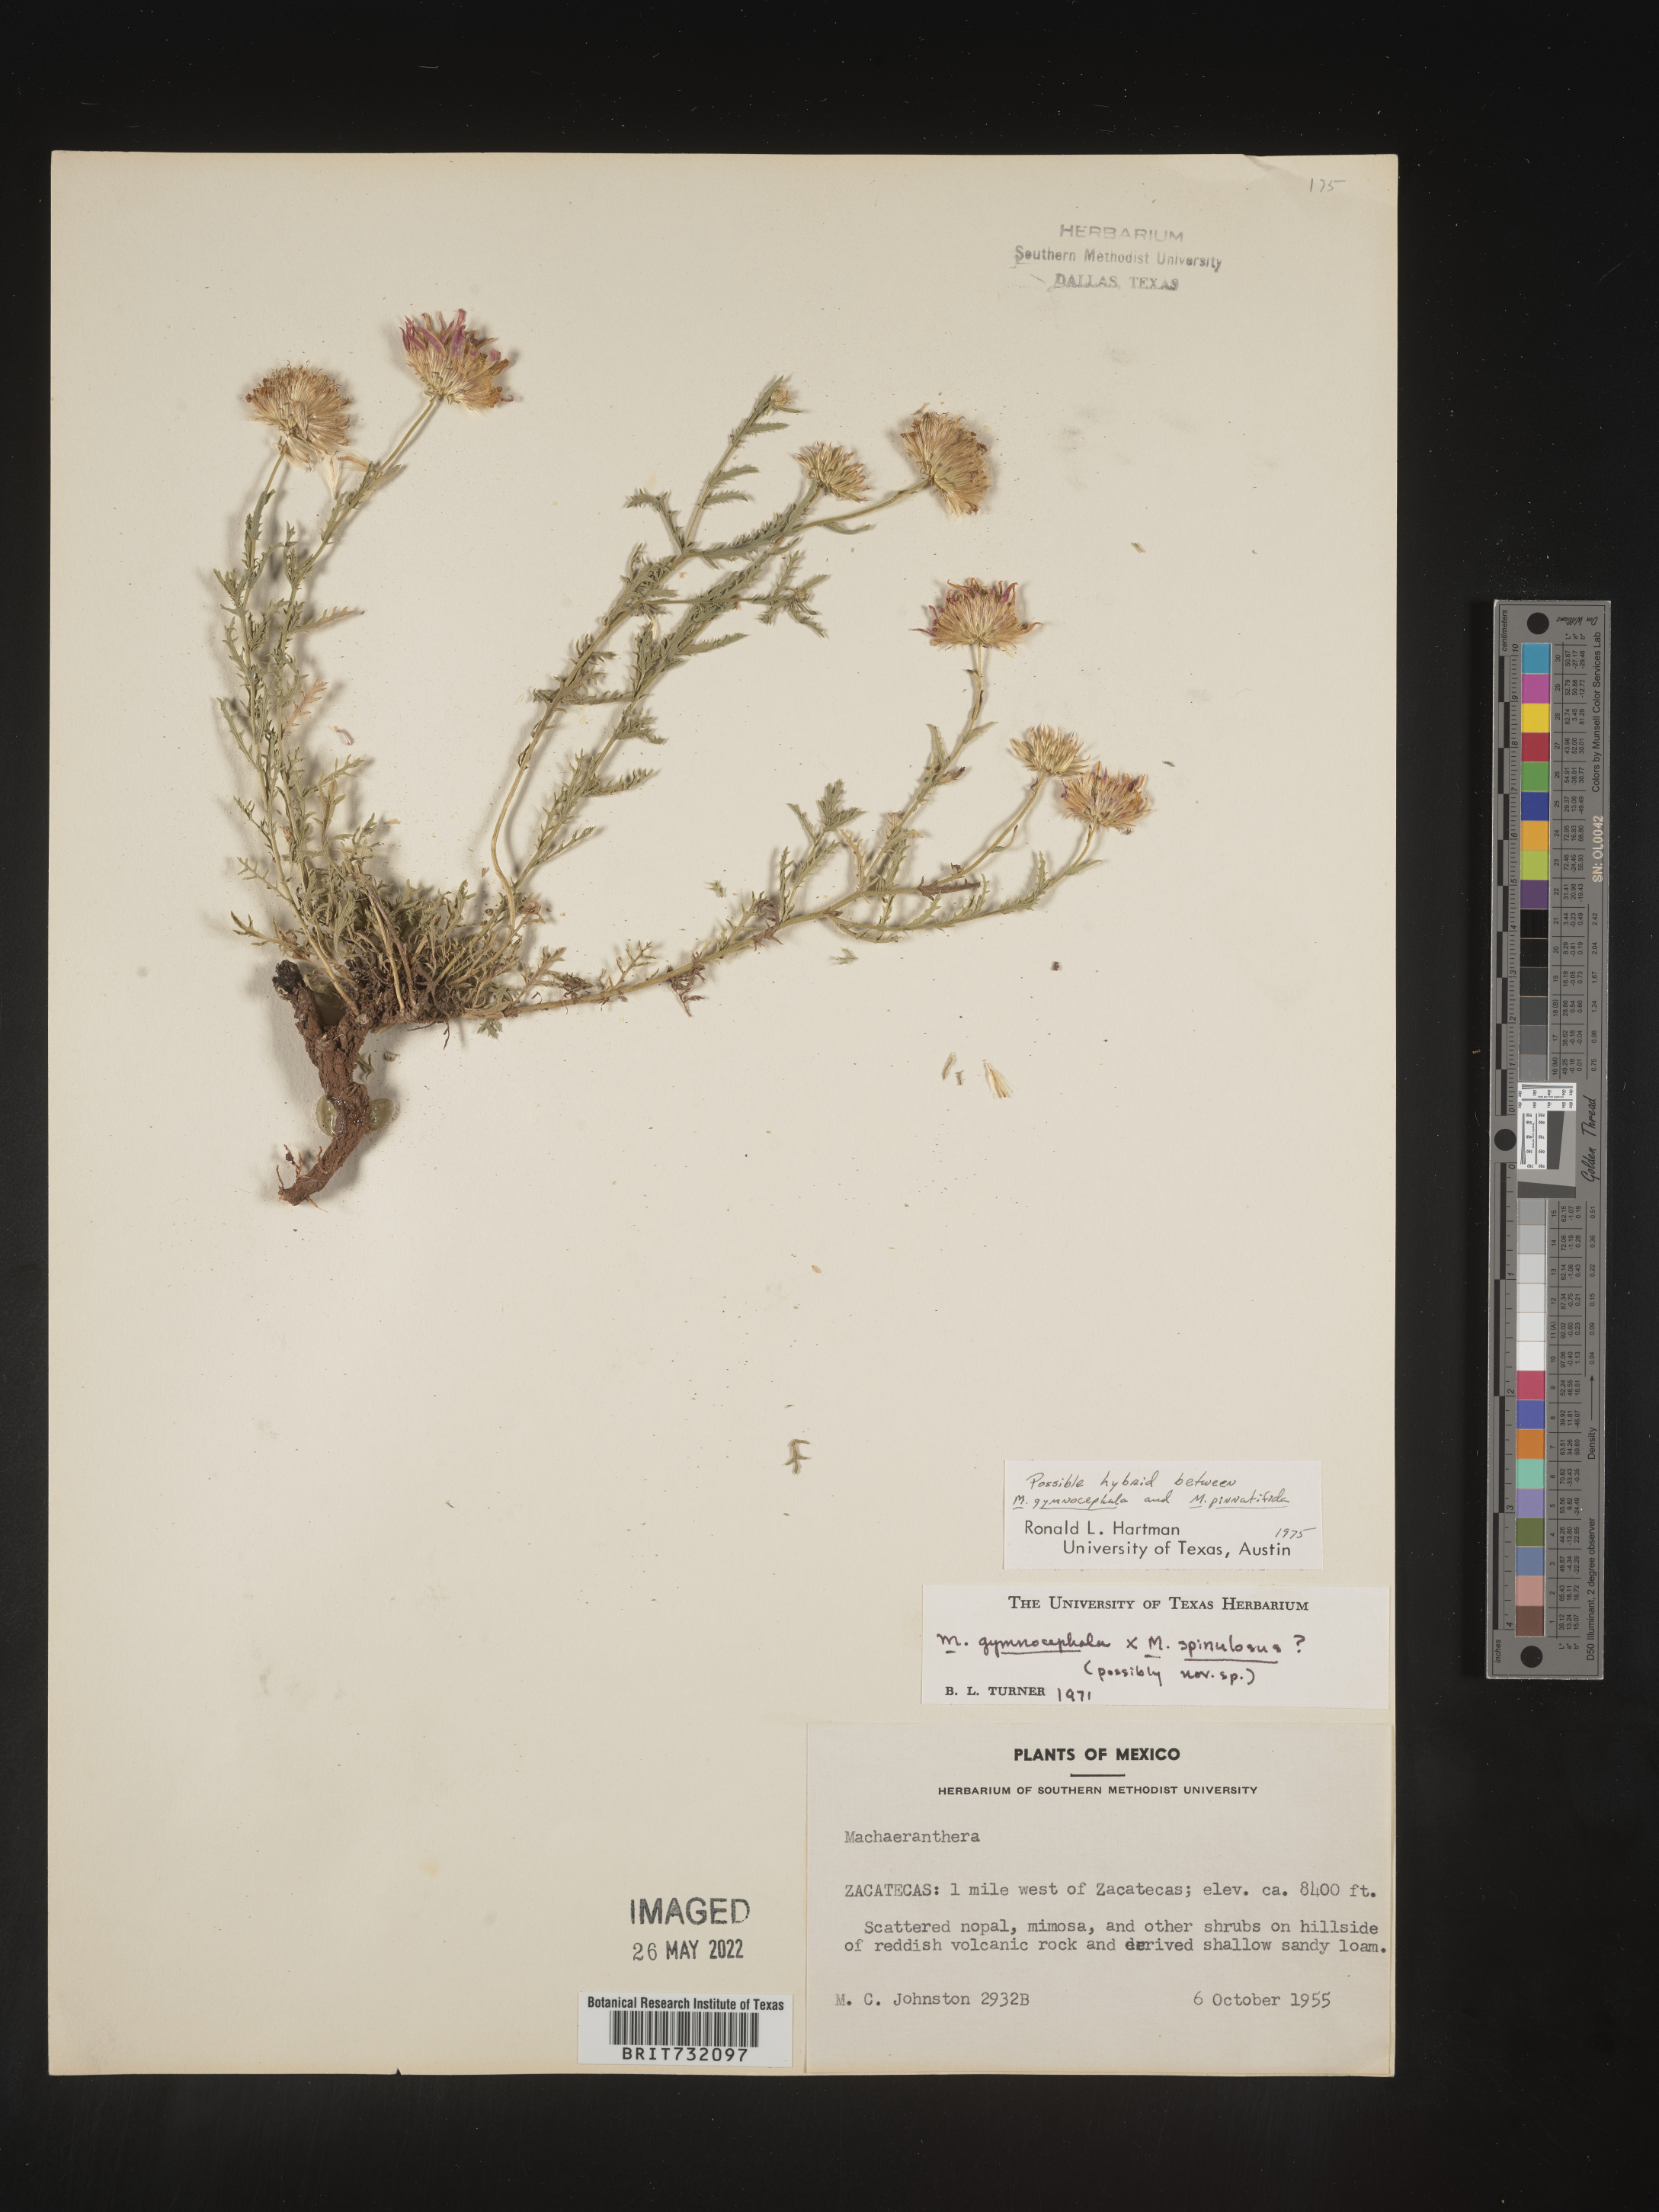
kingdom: Plantae
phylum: Tracheophyta
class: Magnoliopsida
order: Asterales
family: Asteraceae
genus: Xanthisma
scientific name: Xanthisma blephariphyllum
